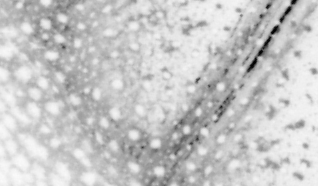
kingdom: Animalia
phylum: Chordata
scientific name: Chordata
